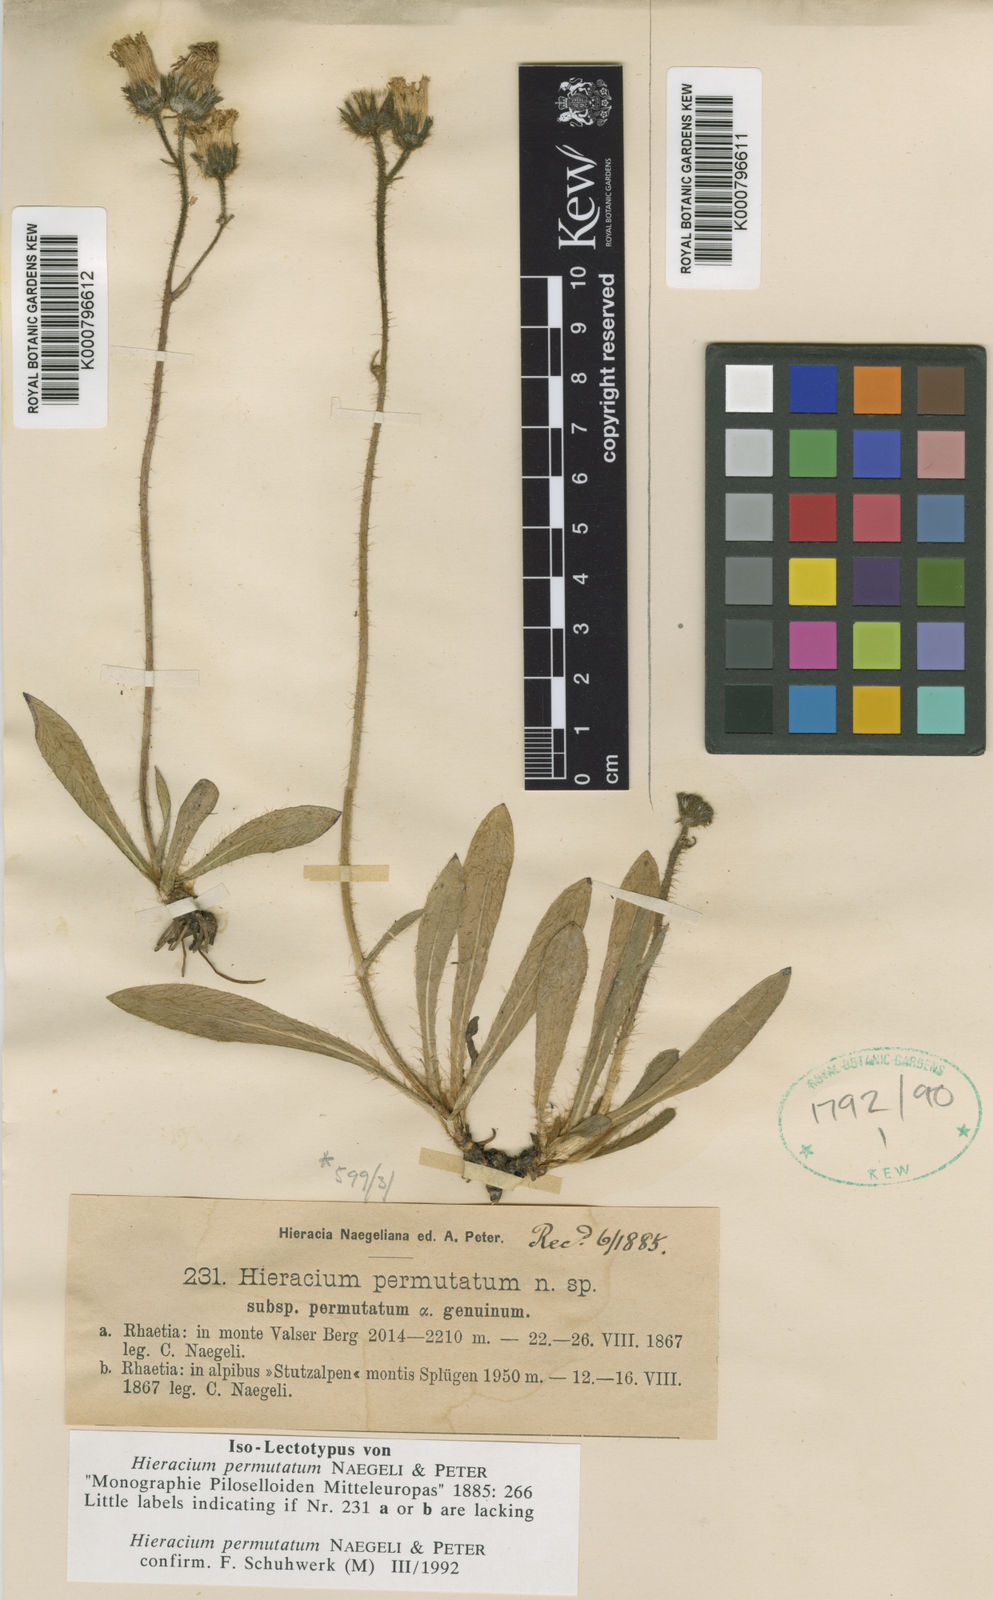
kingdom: Plantae
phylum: Tracheophyta
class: Magnoliopsida
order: Asterales
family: Asteraceae
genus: Hieracium
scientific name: Hieracium
